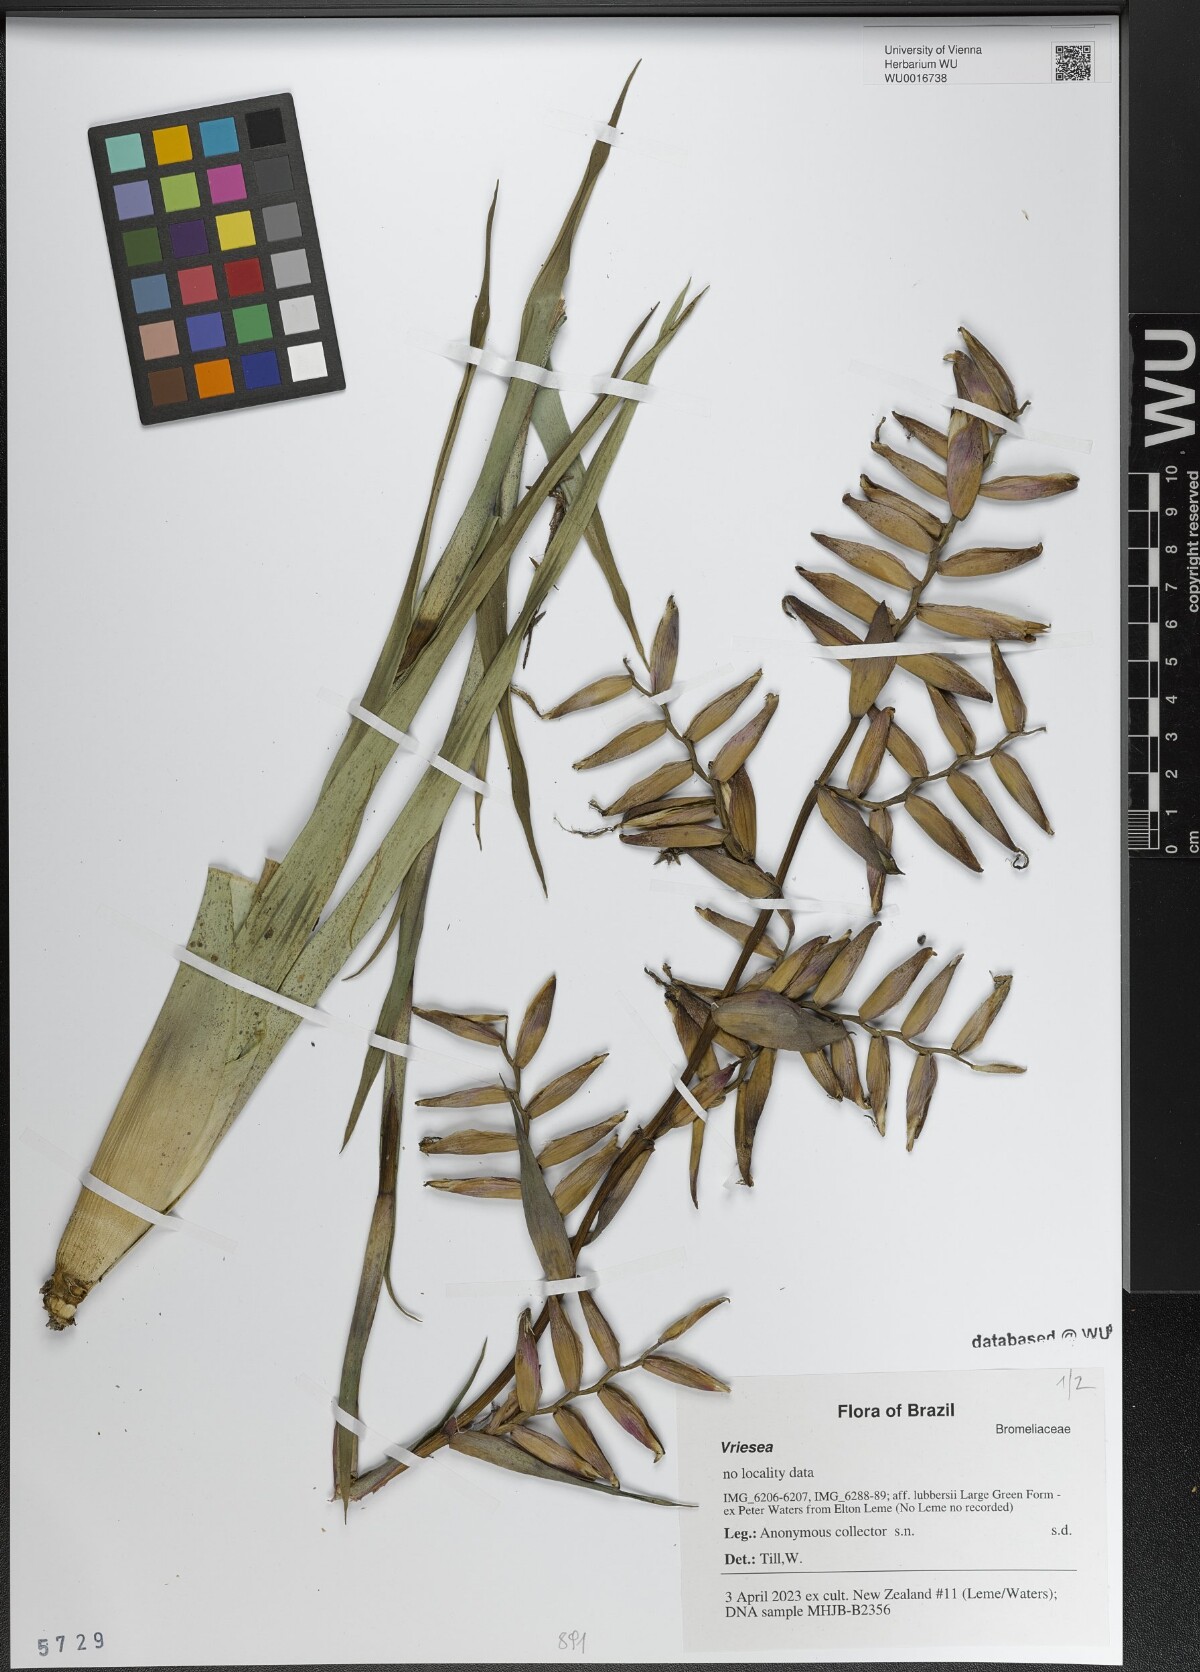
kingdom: Plantae
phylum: Tracheophyta
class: Liliopsida
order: Poales
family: Bromeliaceae
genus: Vriesea
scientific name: Vriesea
